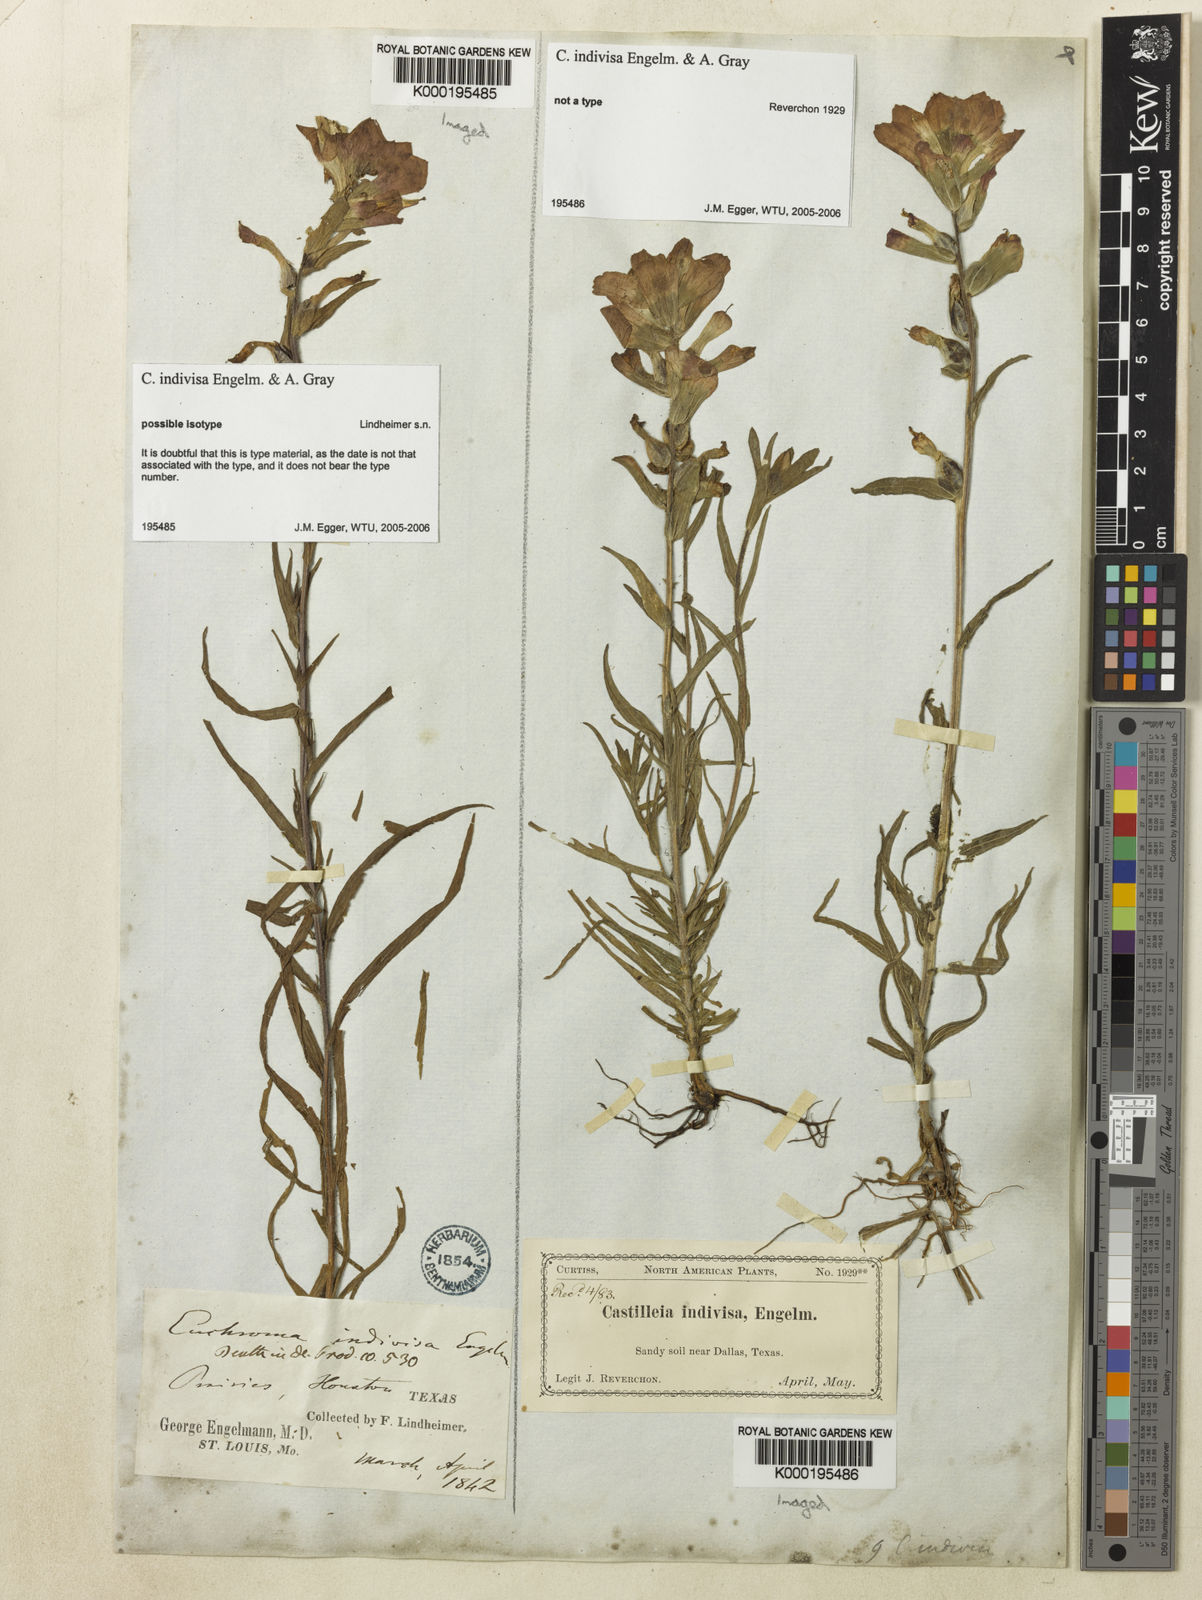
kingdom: Plantae
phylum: Tracheophyta
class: Magnoliopsida
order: Lamiales
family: Orobanchaceae
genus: Castilleja
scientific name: Castilleja indivisa
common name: Texas paintbrush
